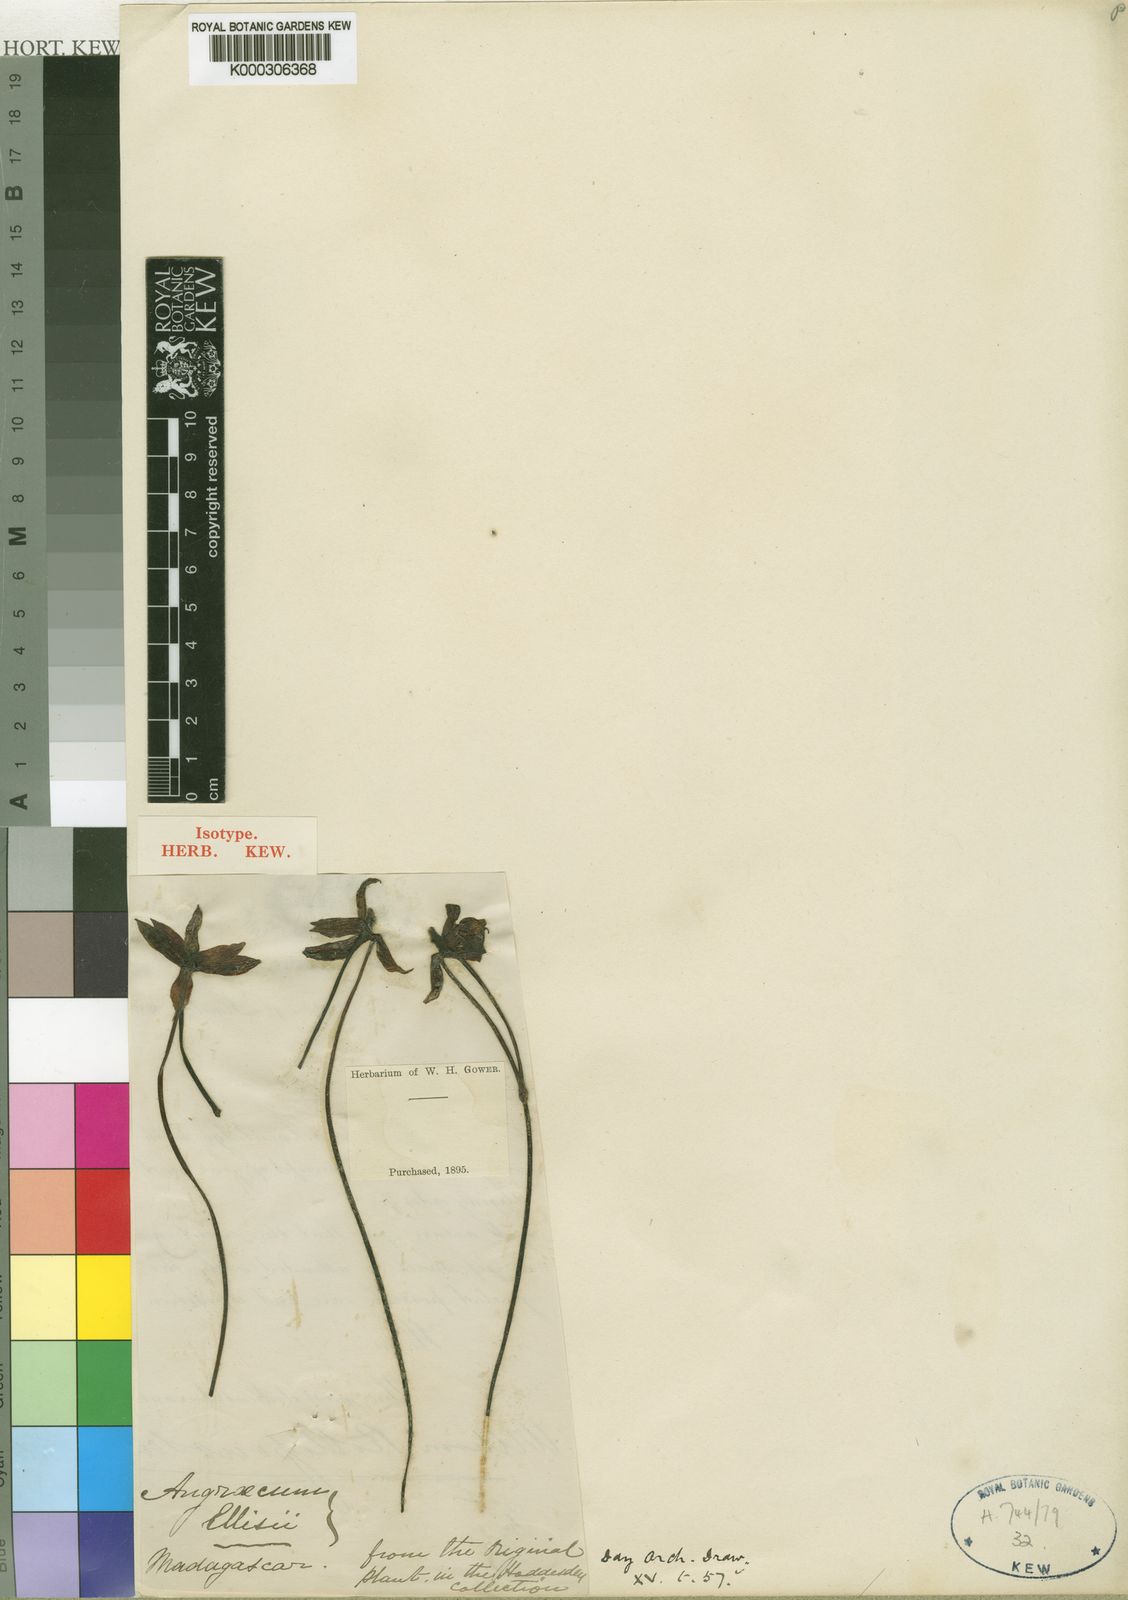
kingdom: Plantae
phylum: Tracheophyta
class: Liliopsida
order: Asparagales
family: Orchidaceae
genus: Aerangis
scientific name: Aerangis ellisii
